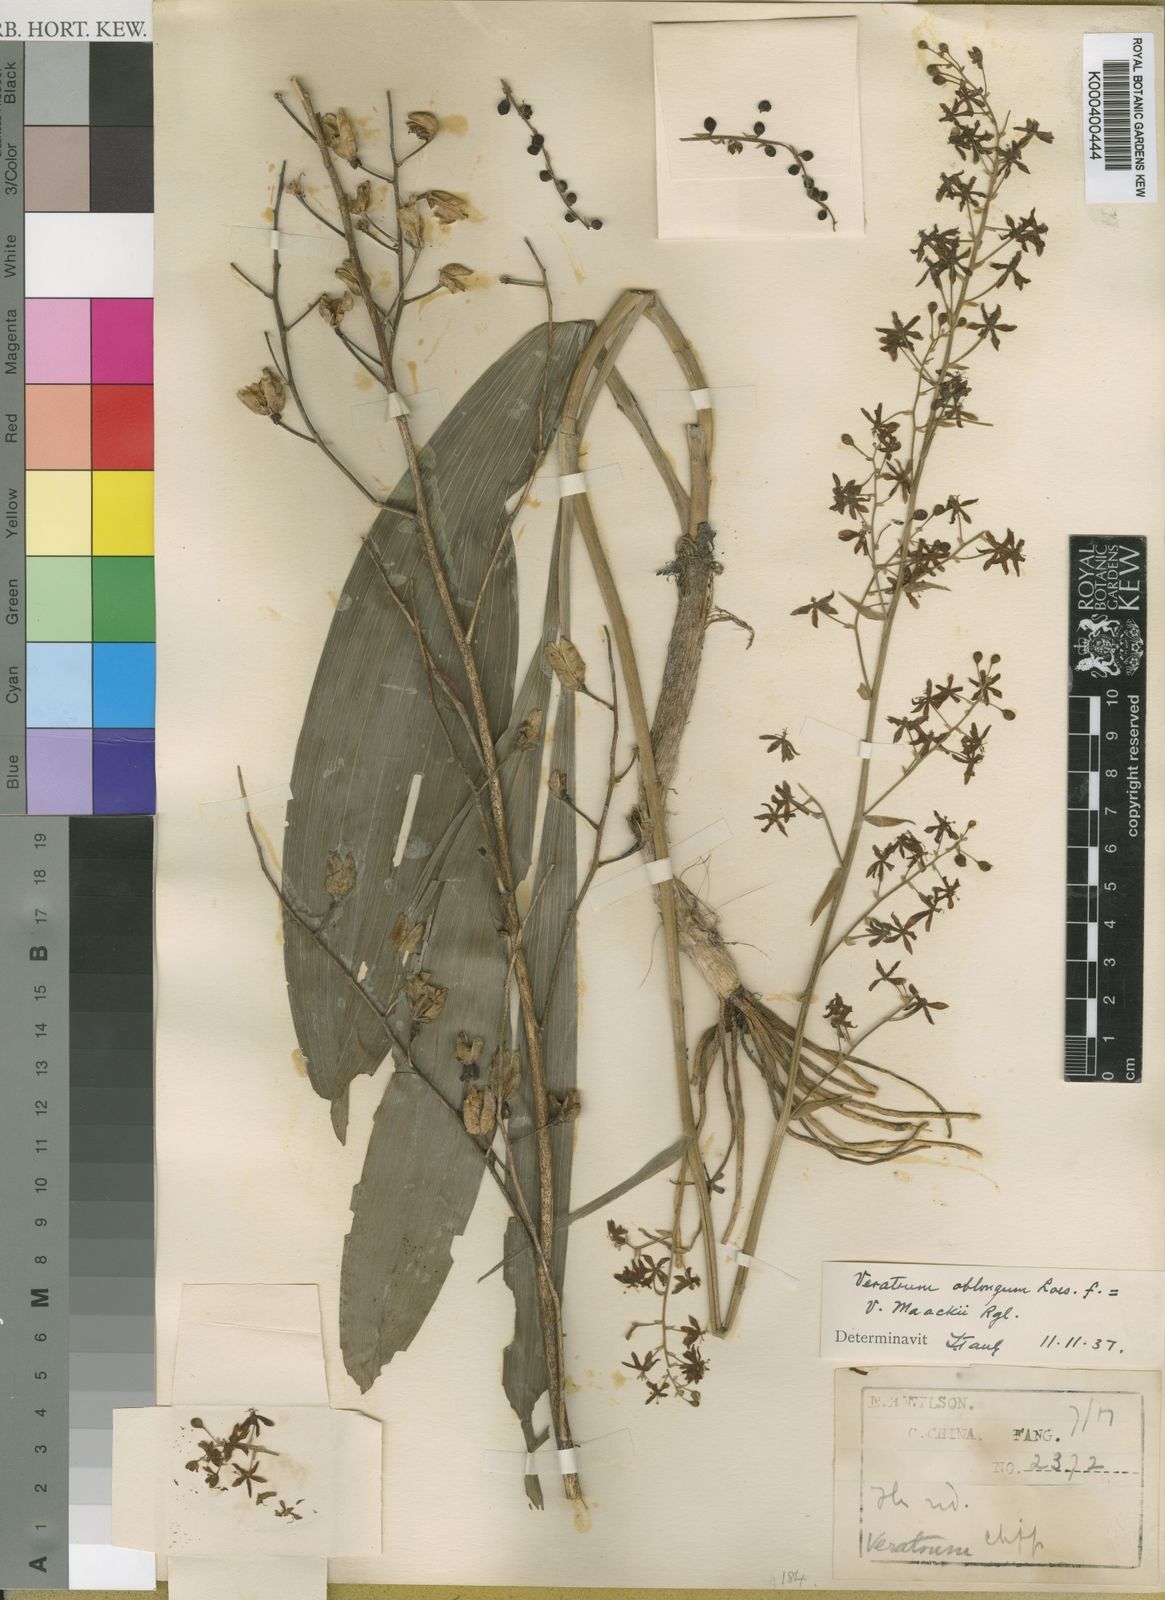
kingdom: Plantae
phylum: Tracheophyta
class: Liliopsida
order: Liliales
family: Melanthiaceae
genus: Veratrum
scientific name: Veratrum maackii
